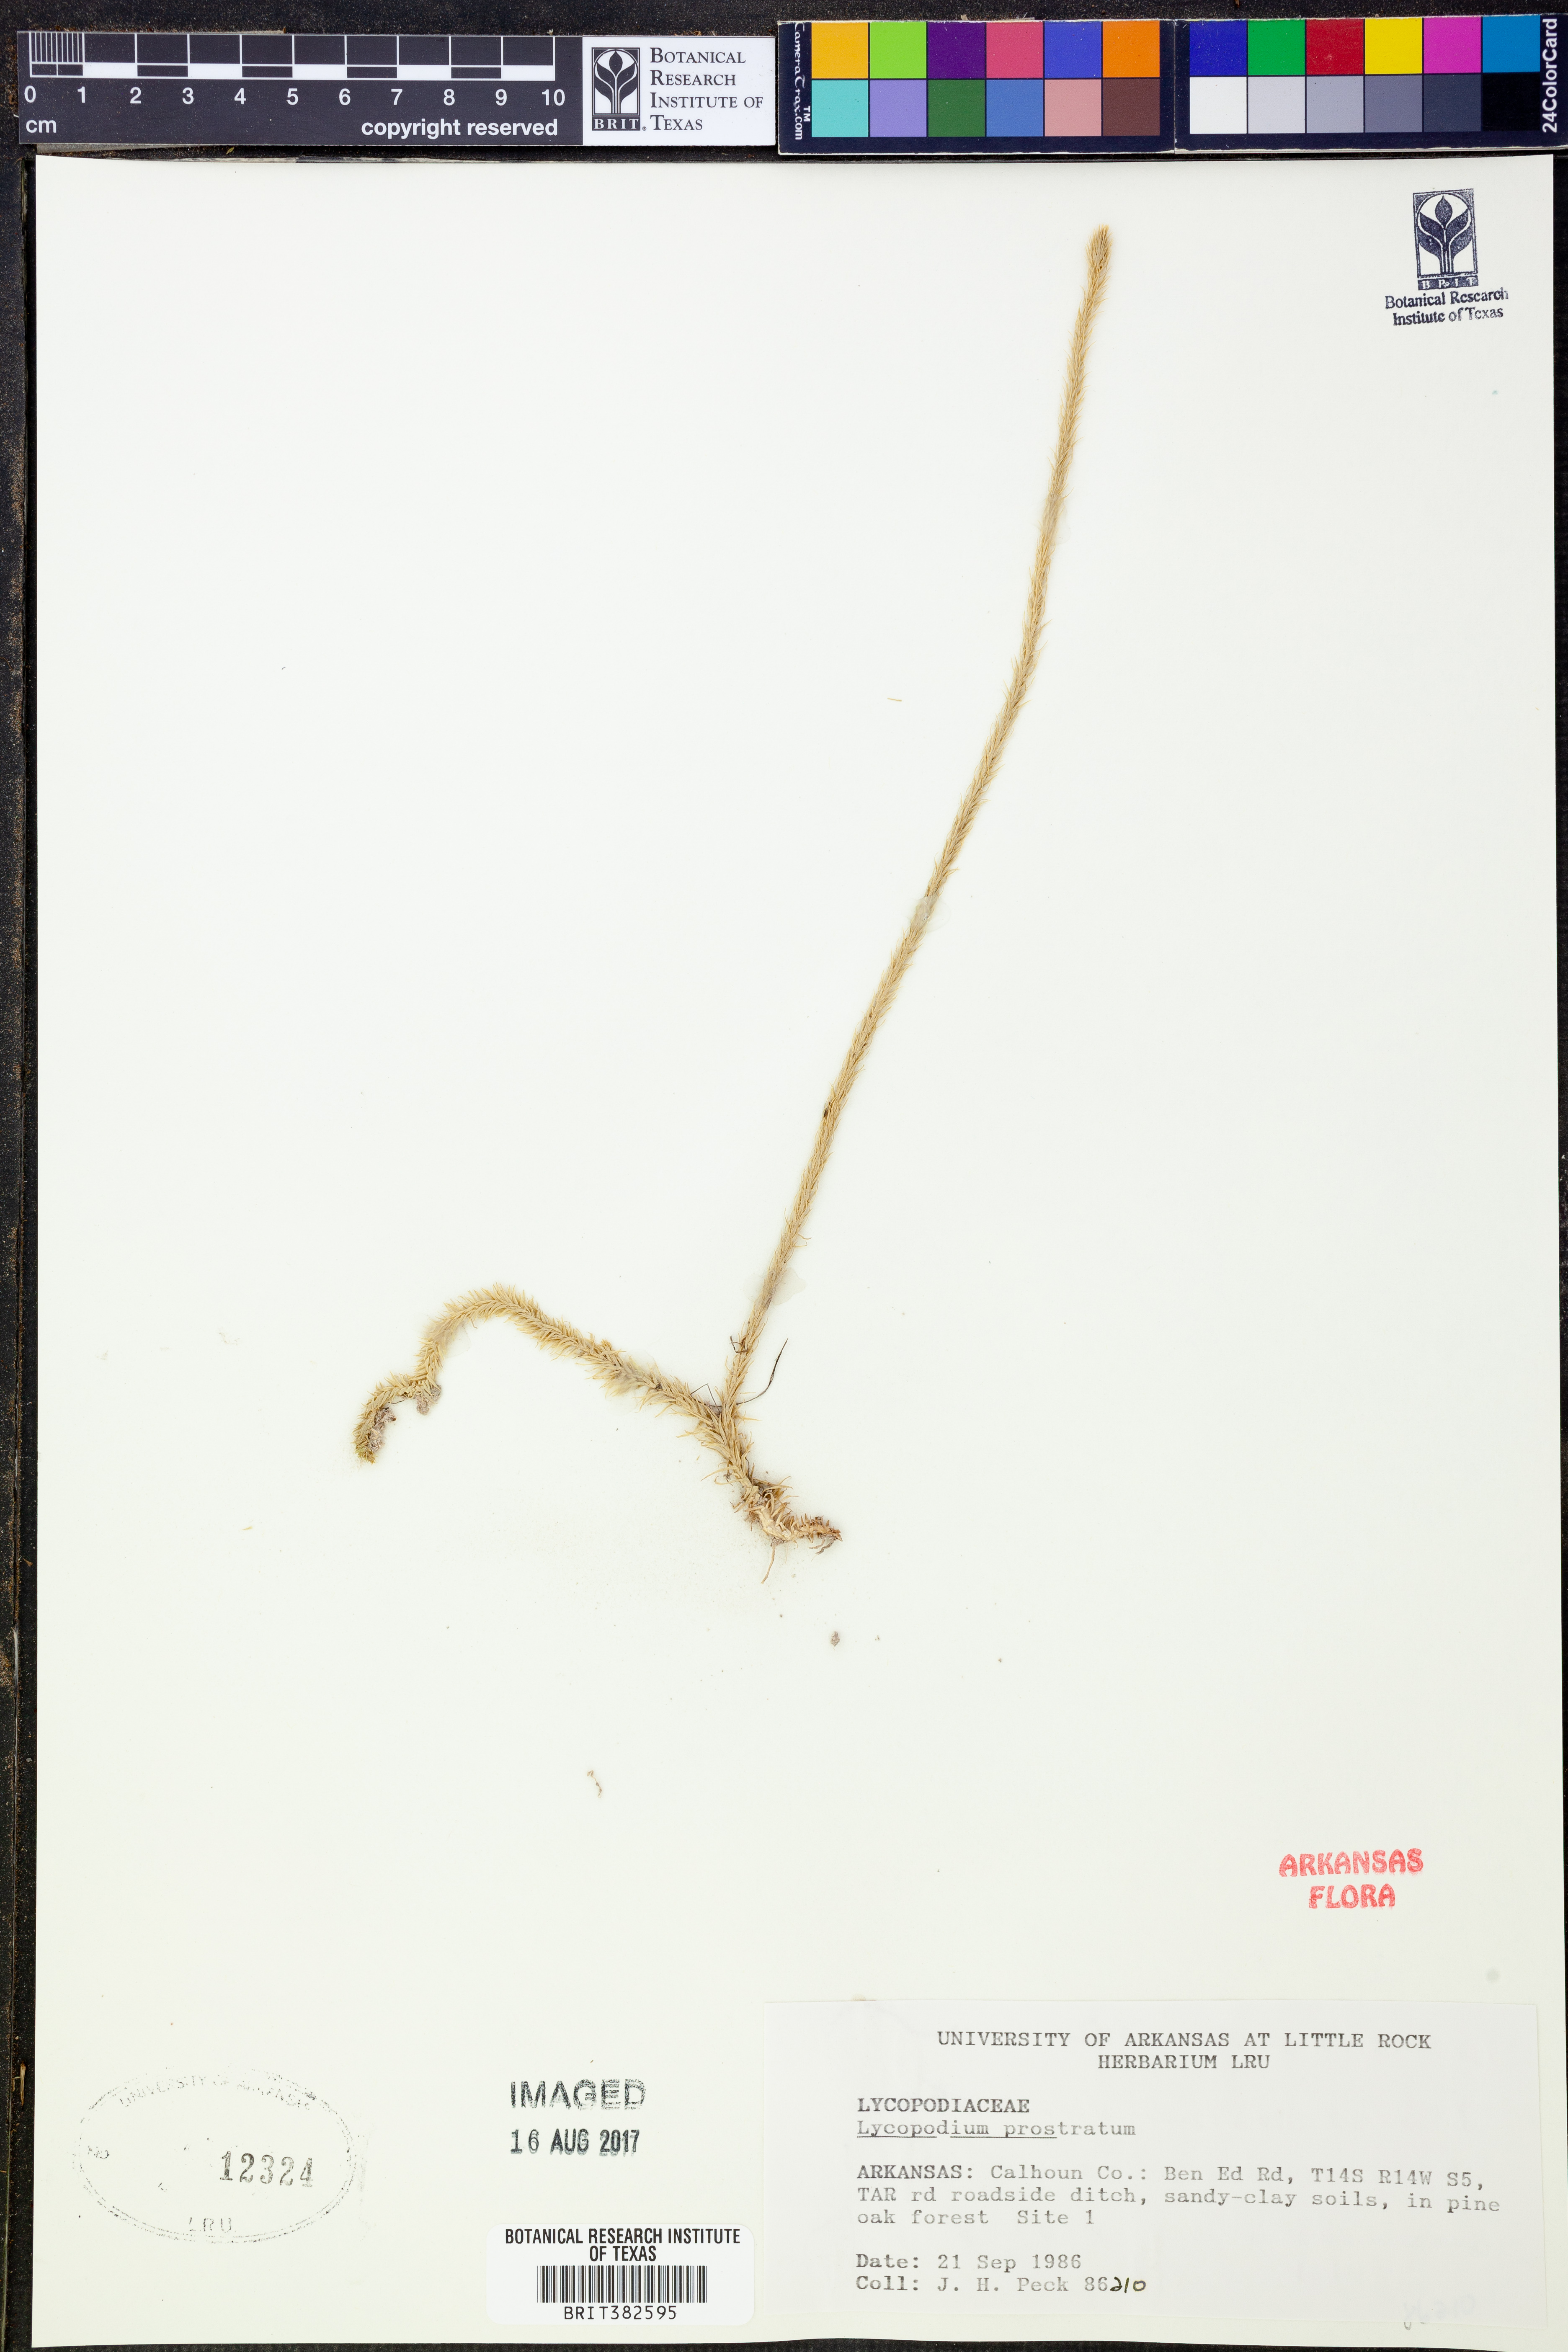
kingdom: Plantae
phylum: Tracheophyta
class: Lycopodiopsida
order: Lycopodiales
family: Lycopodiaceae
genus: Lycopodiella
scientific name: Lycopodiella prostrata
